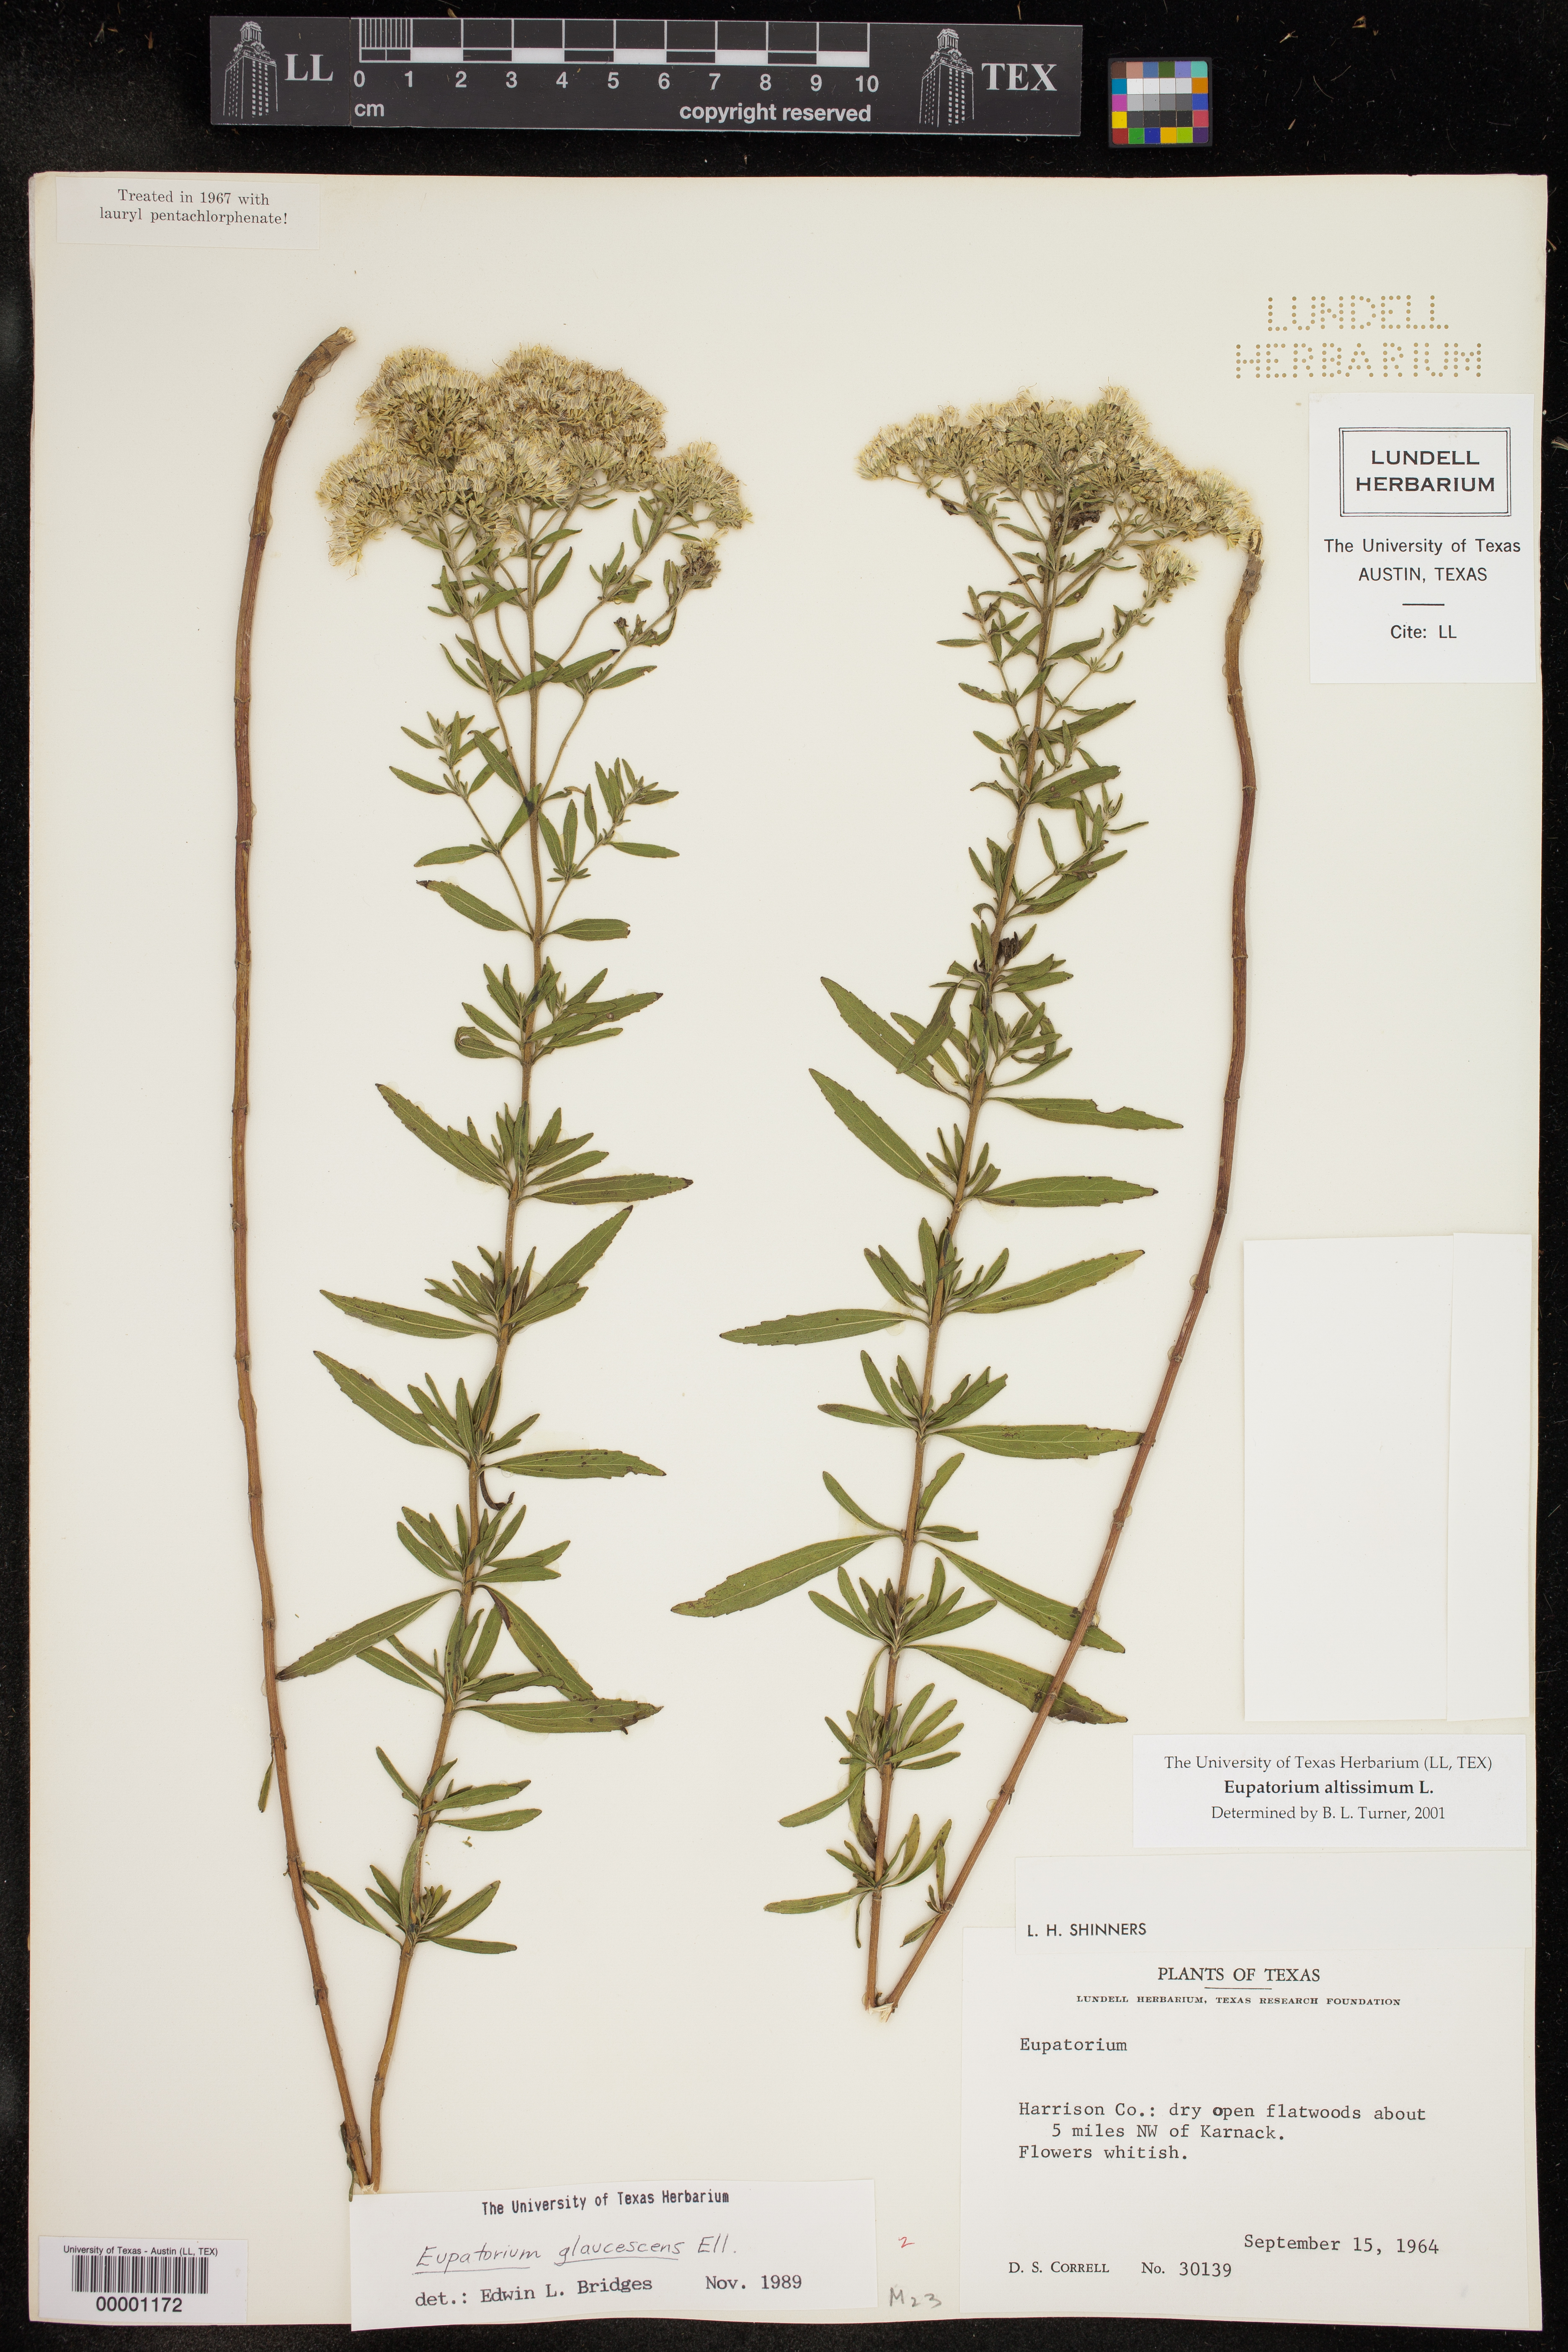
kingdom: Plantae
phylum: Tracheophyta
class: Magnoliopsida
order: Asterales
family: Asteraceae
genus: Eupatorium
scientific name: Eupatorium altissimum
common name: Tall thoroughwort
